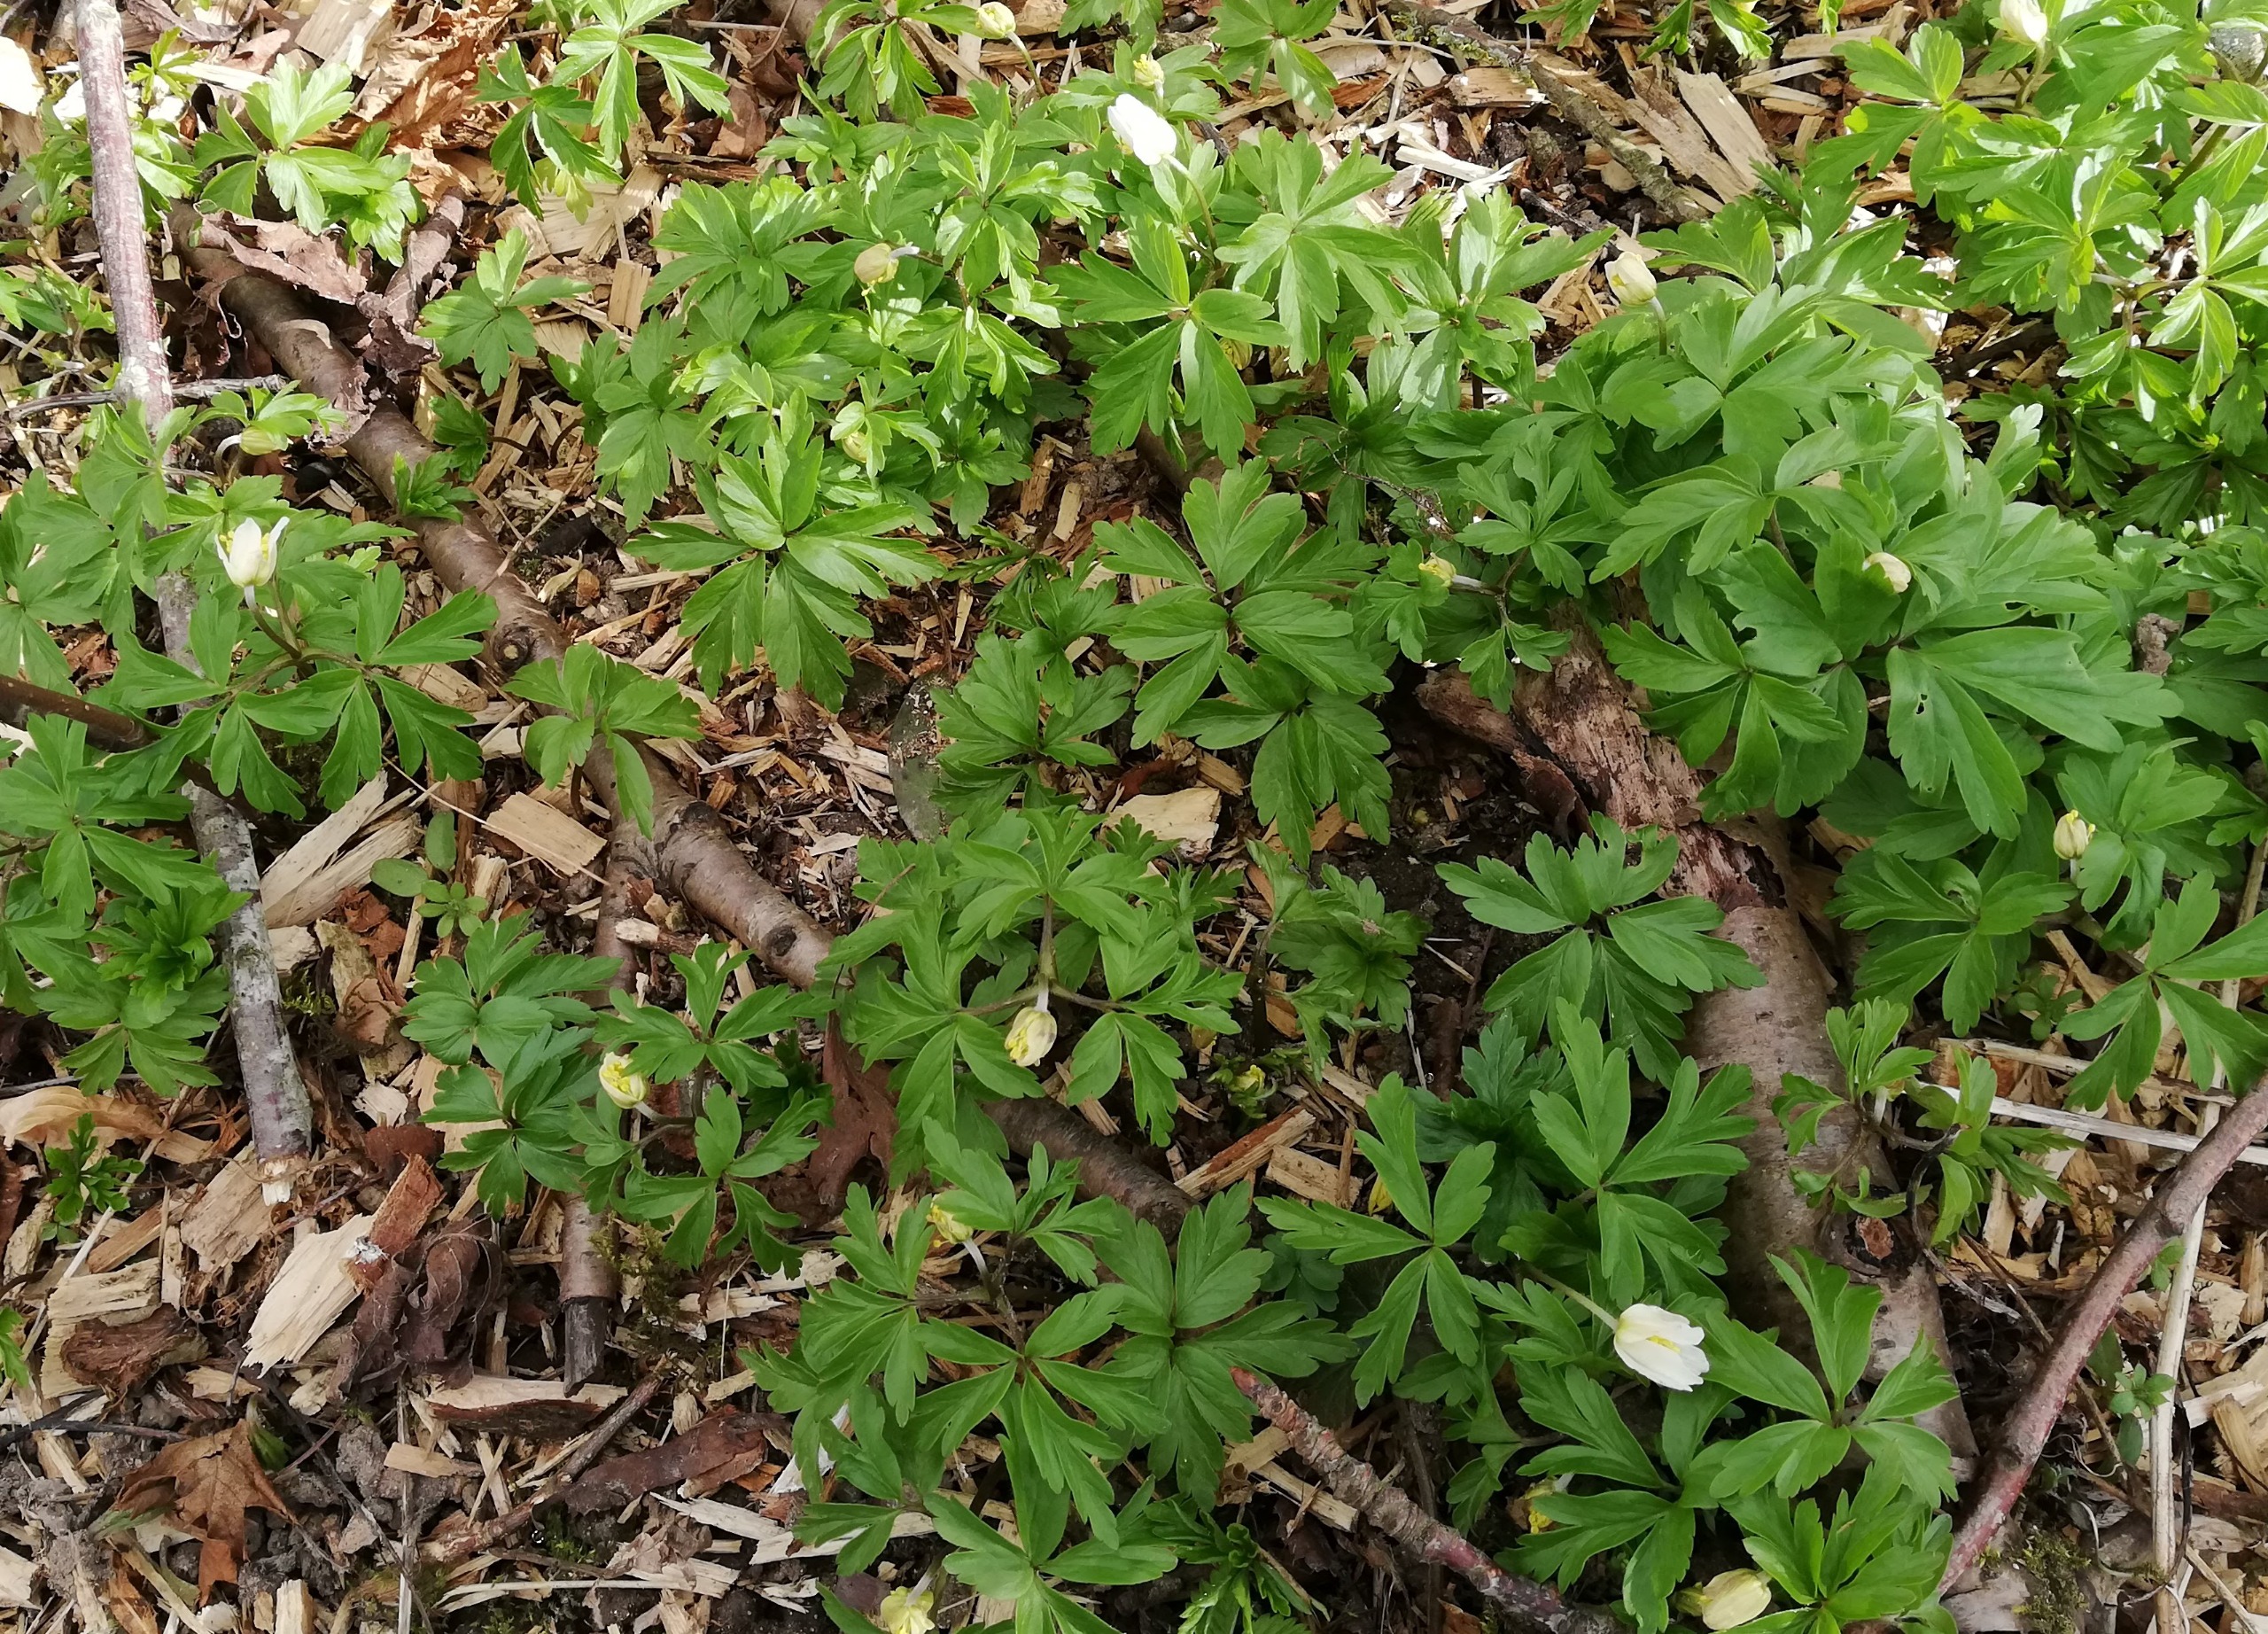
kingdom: Plantae
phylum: Tracheophyta
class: Magnoliopsida
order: Ranunculales
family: Ranunculaceae
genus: Anemone
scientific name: Anemone nemorosa
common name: Hvid anemone
